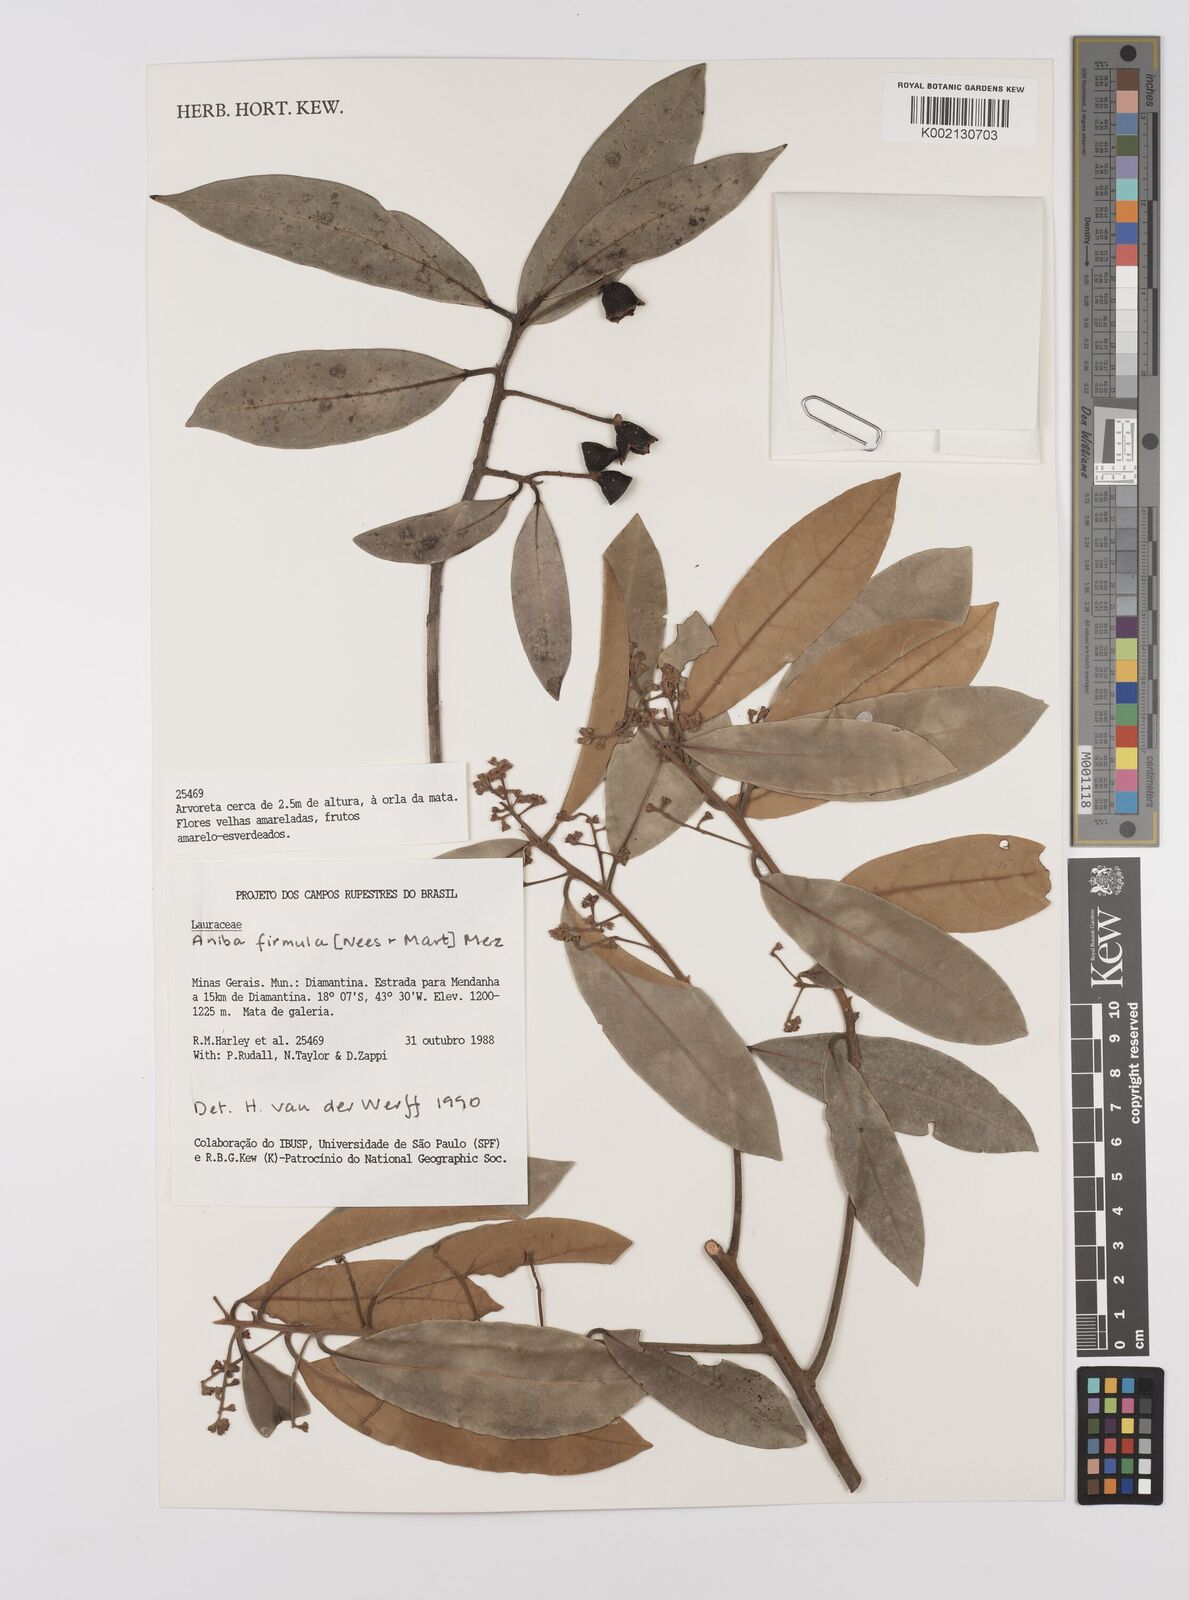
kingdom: Plantae
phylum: Tracheophyta
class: Magnoliopsida
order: Laurales
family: Lauraceae
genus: Aniba
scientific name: Aniba firmula
